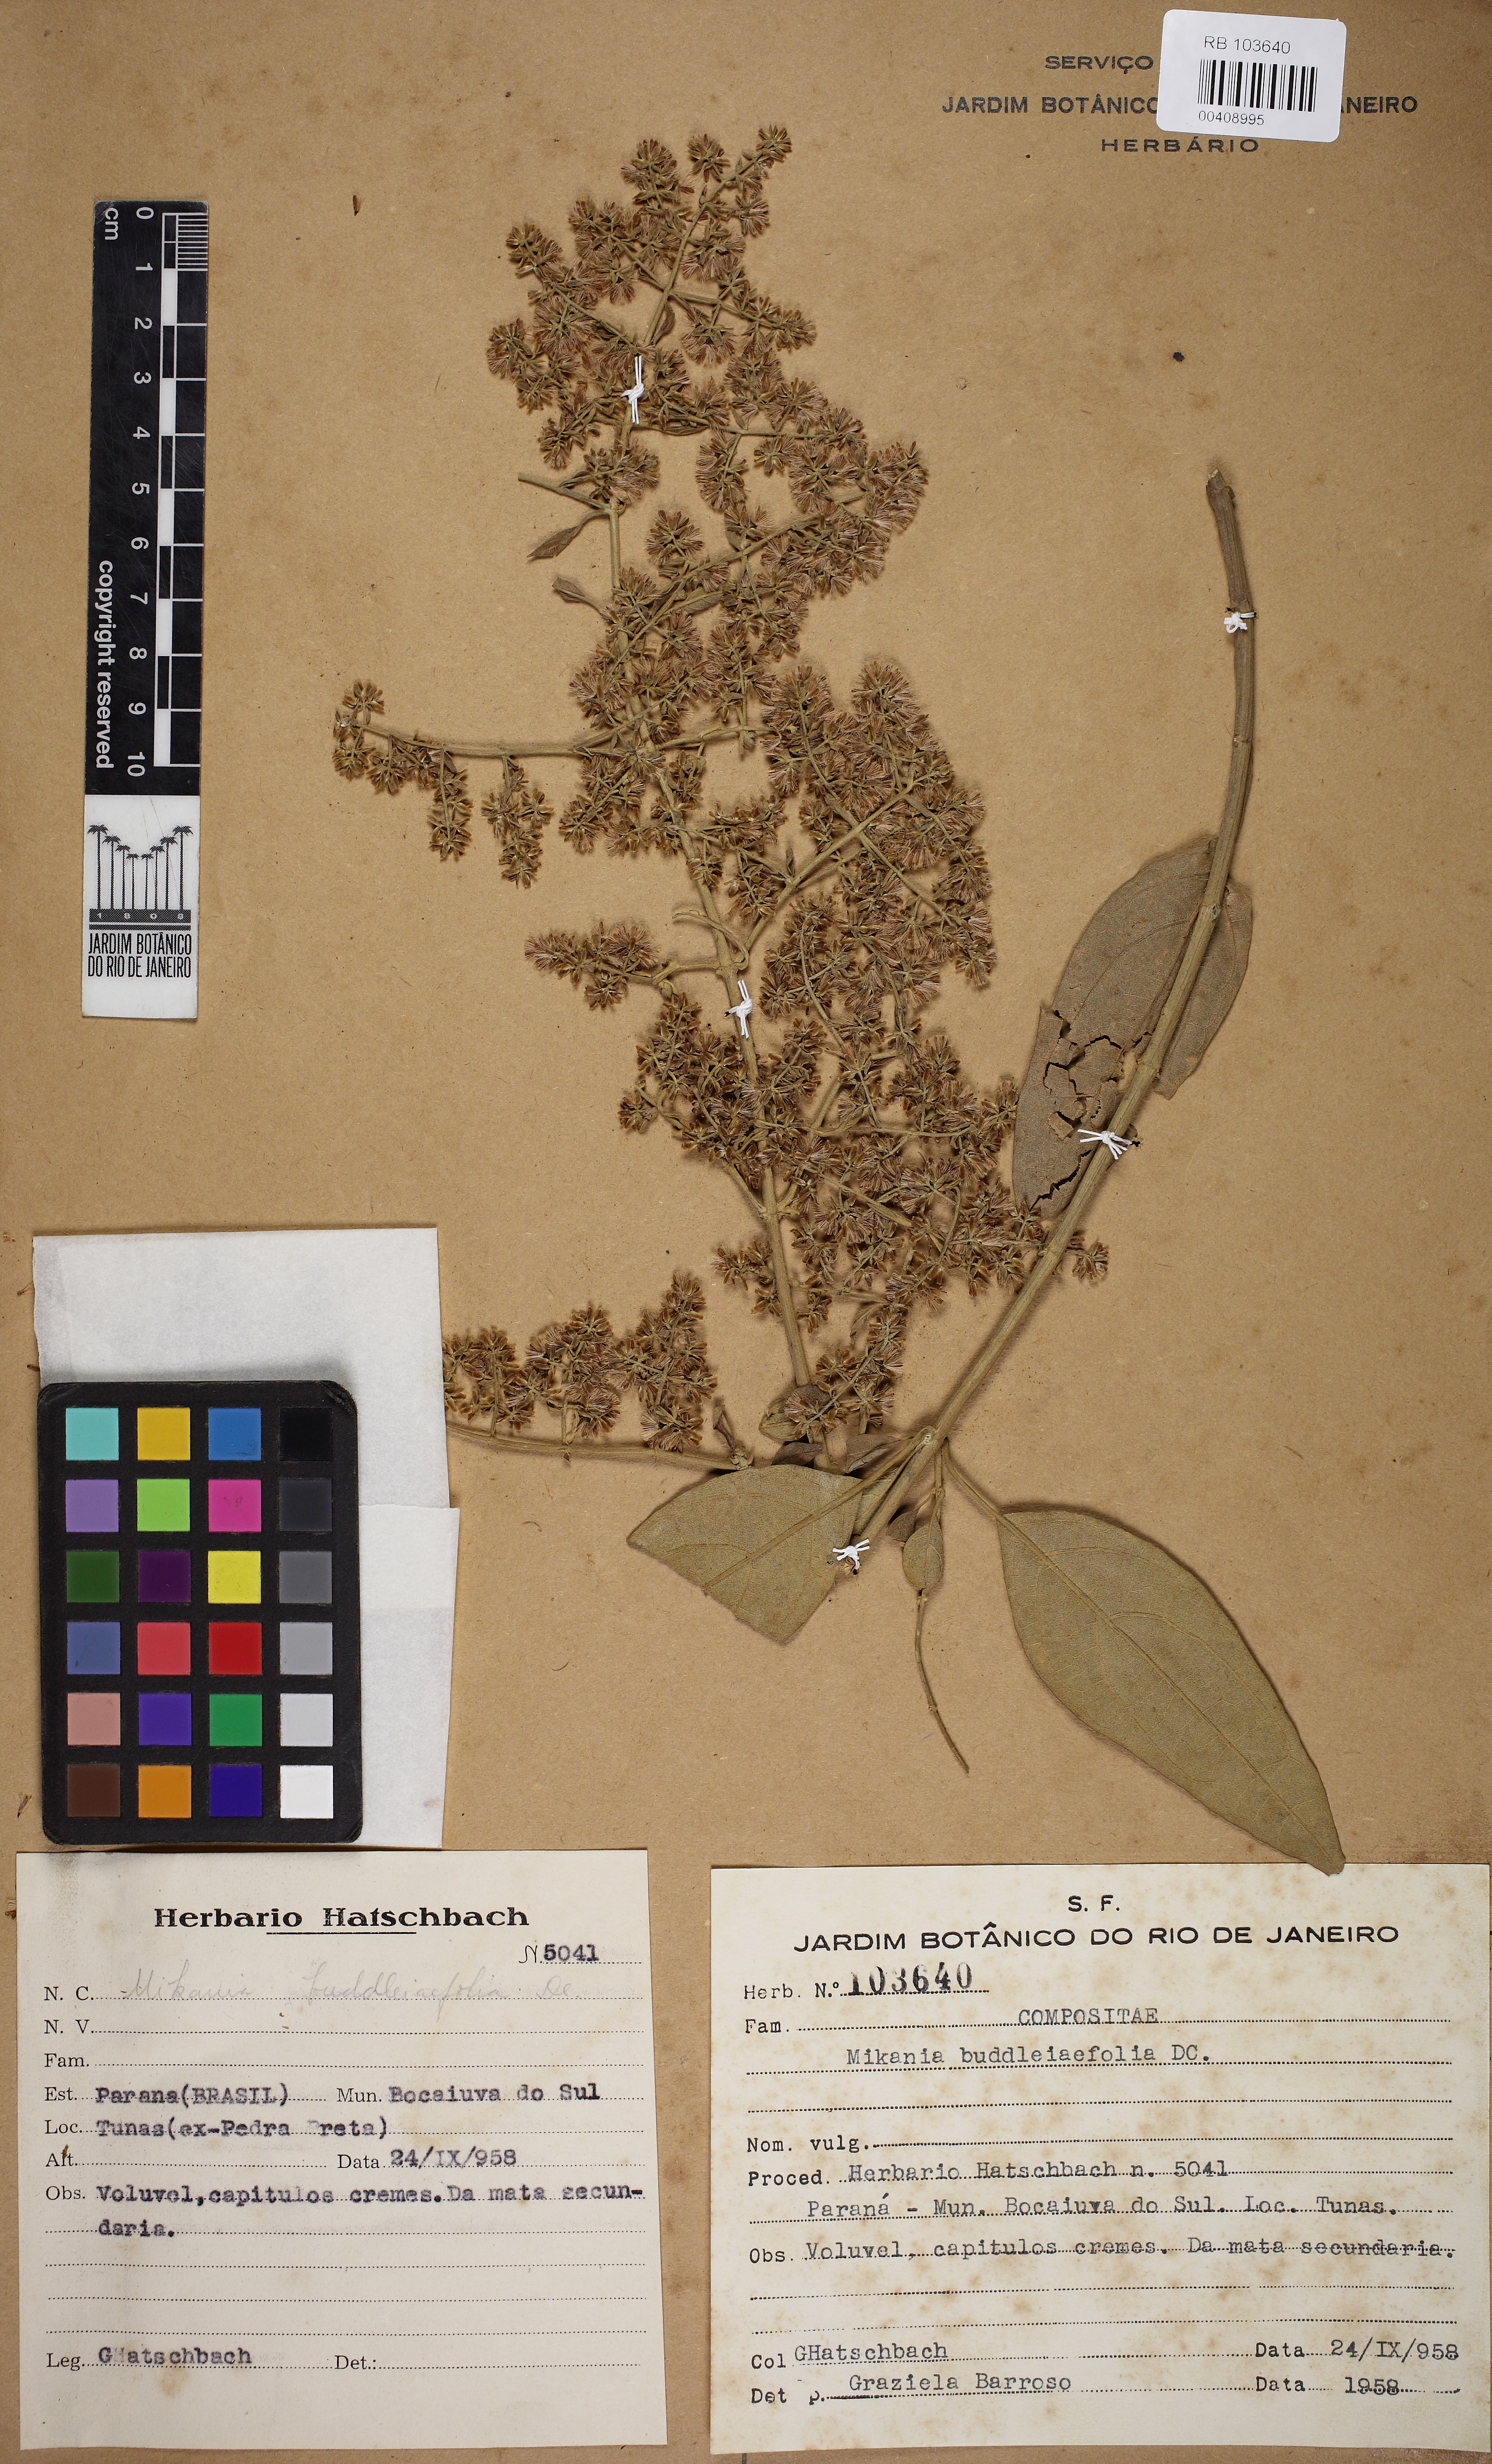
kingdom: Plantae
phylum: Tracheophyta
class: Magnoliopsida
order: Asterales
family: Asteraceae
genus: Mikania
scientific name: Mikania buddleiaefolia
